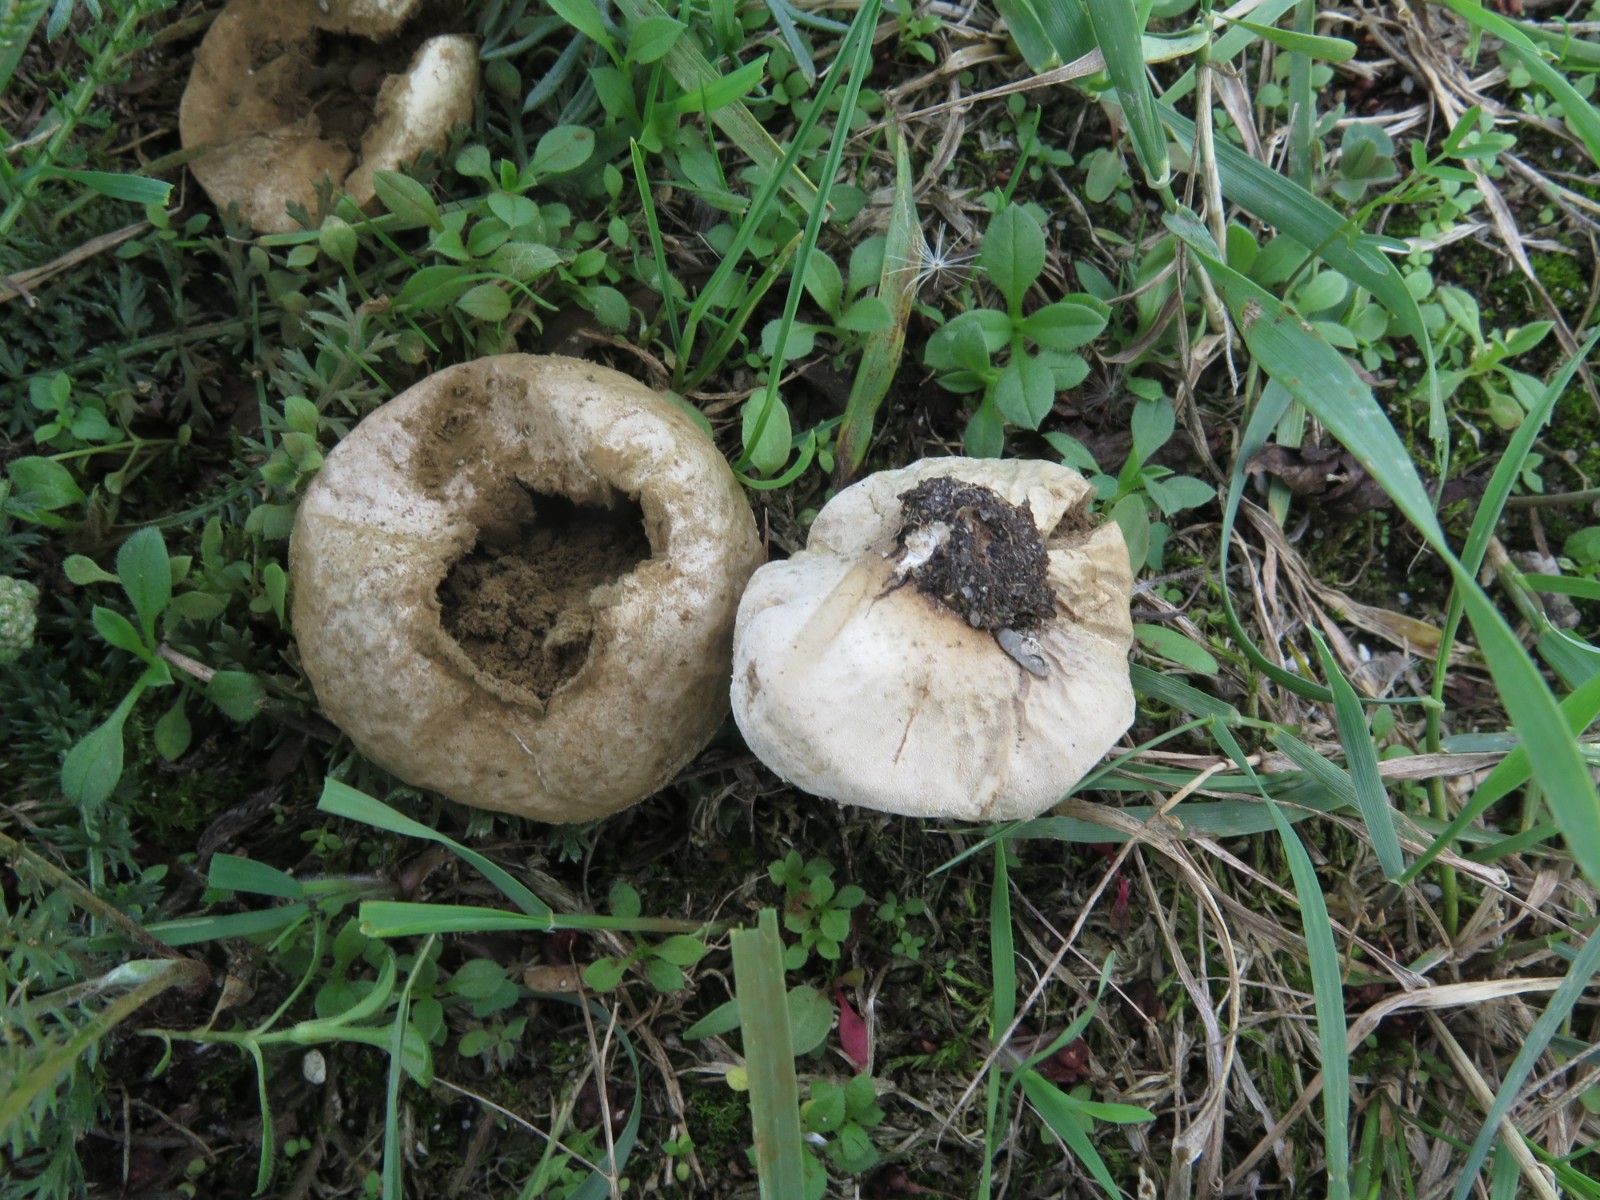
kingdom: Fungi
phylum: Basidiomycota
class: Agaricomycetes
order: Agaricales
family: Lycoperdaceae
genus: Lycoperdon
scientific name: Lycoperdon pratense
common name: flad støvbold
